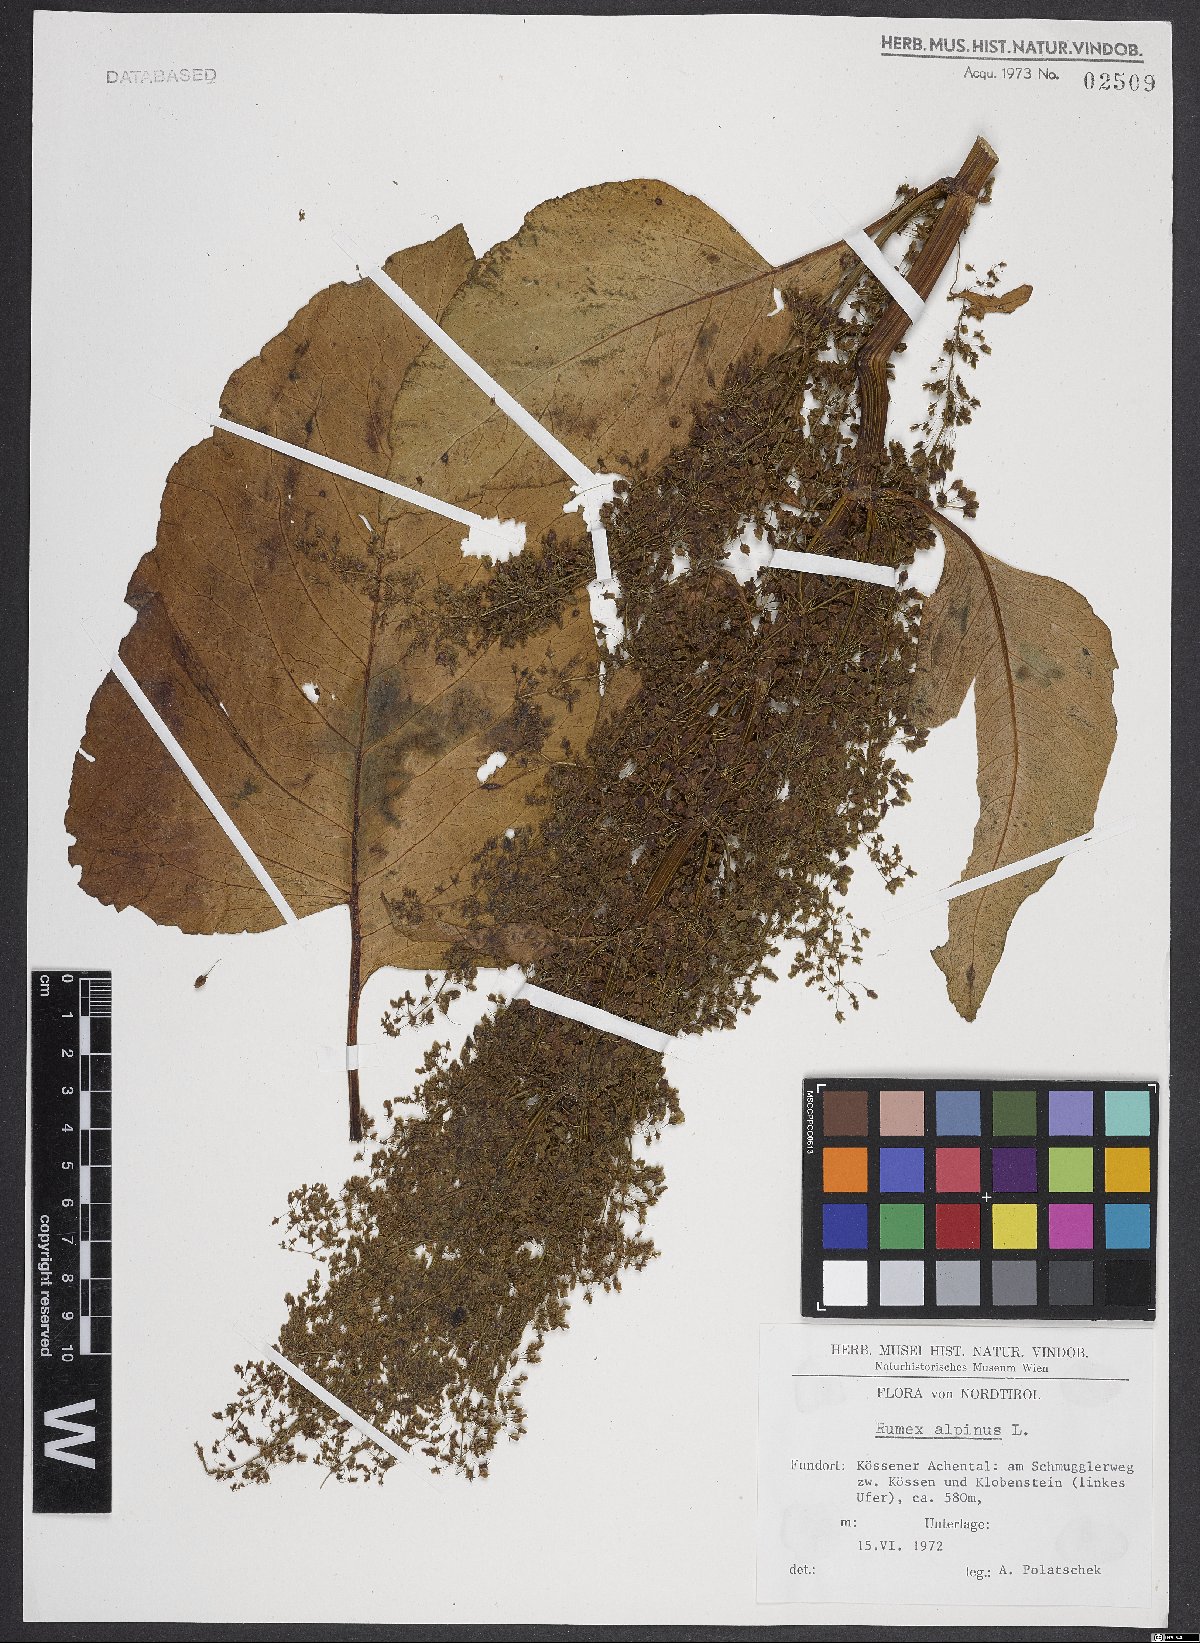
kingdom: Plantae
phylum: Tracheophyta
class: Magnoliopsida
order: Caryophyllales
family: Polygonaceae
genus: Rumex
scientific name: Rumex alpinus
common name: Alpine dock
